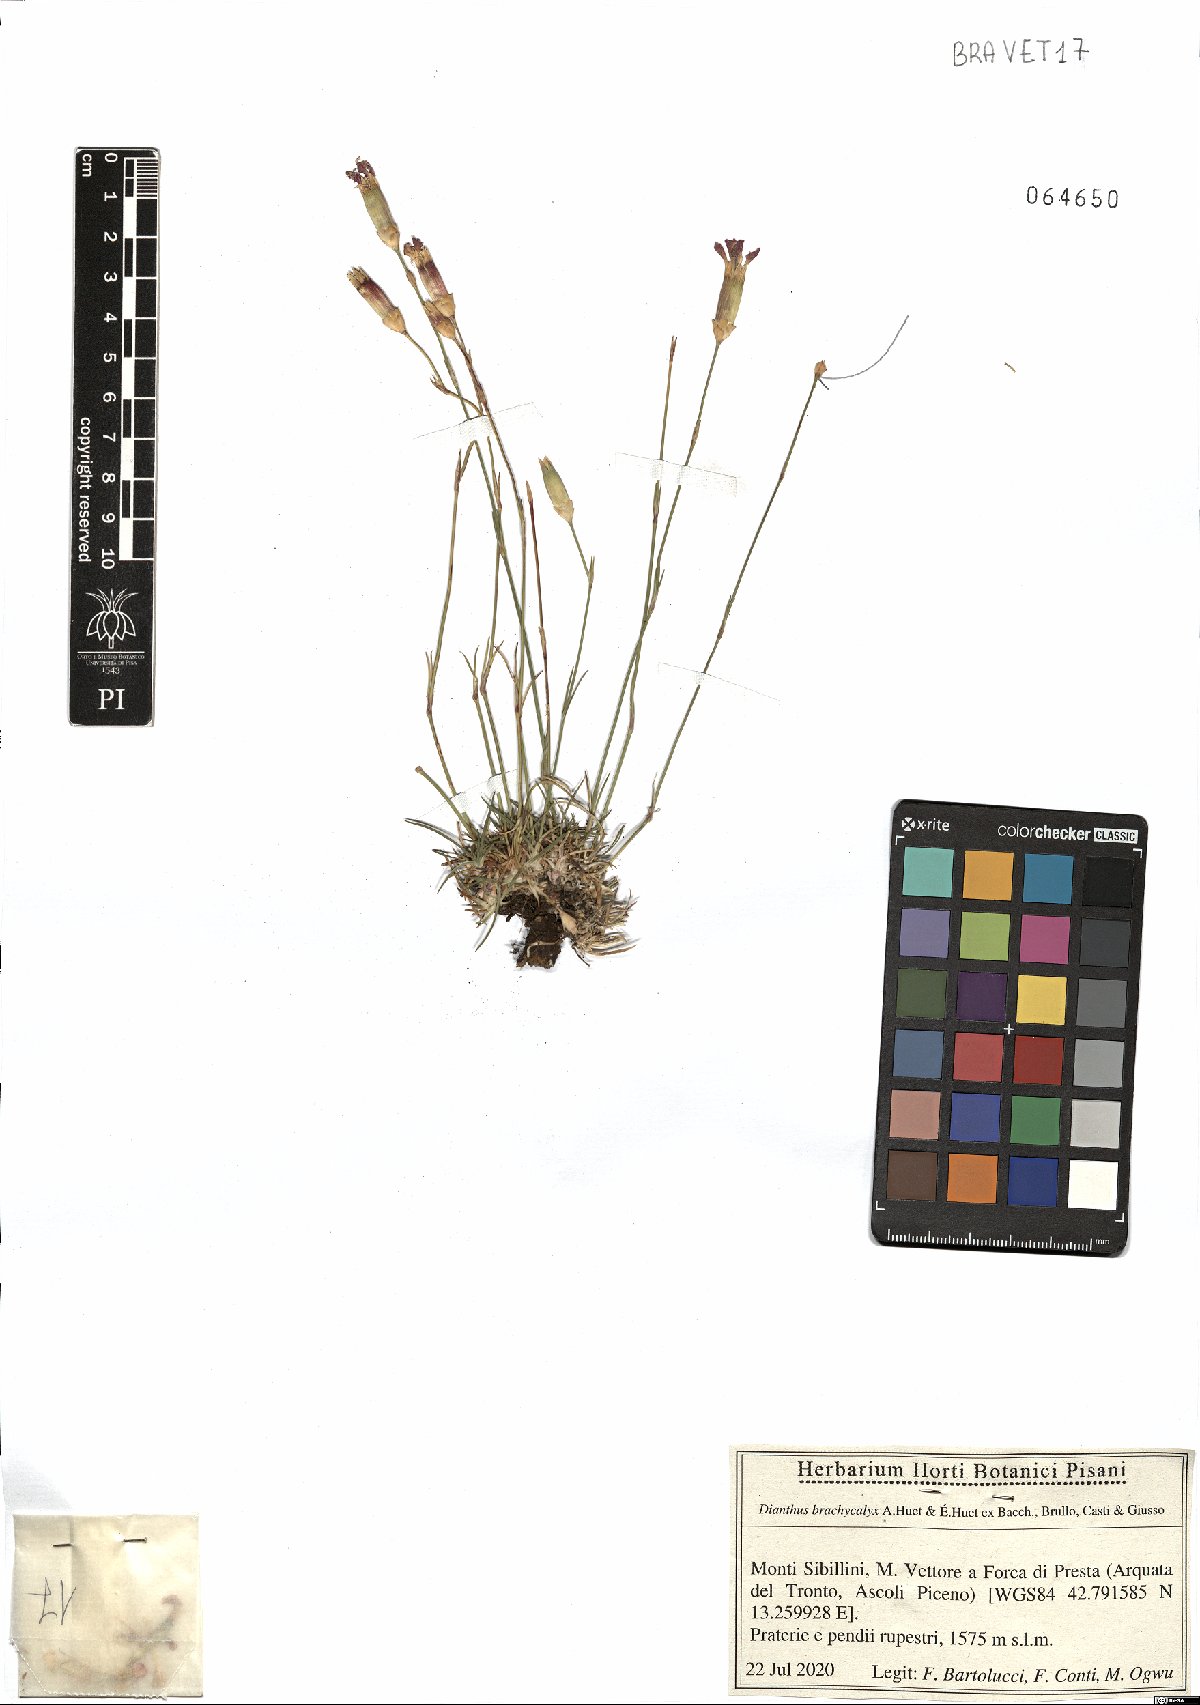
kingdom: Plantae
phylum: Tracheophyta
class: Magnoliopsida
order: Caryophyllales
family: Caryophyllaceae
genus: Dianthus
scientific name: Dianthus brachycalyx
